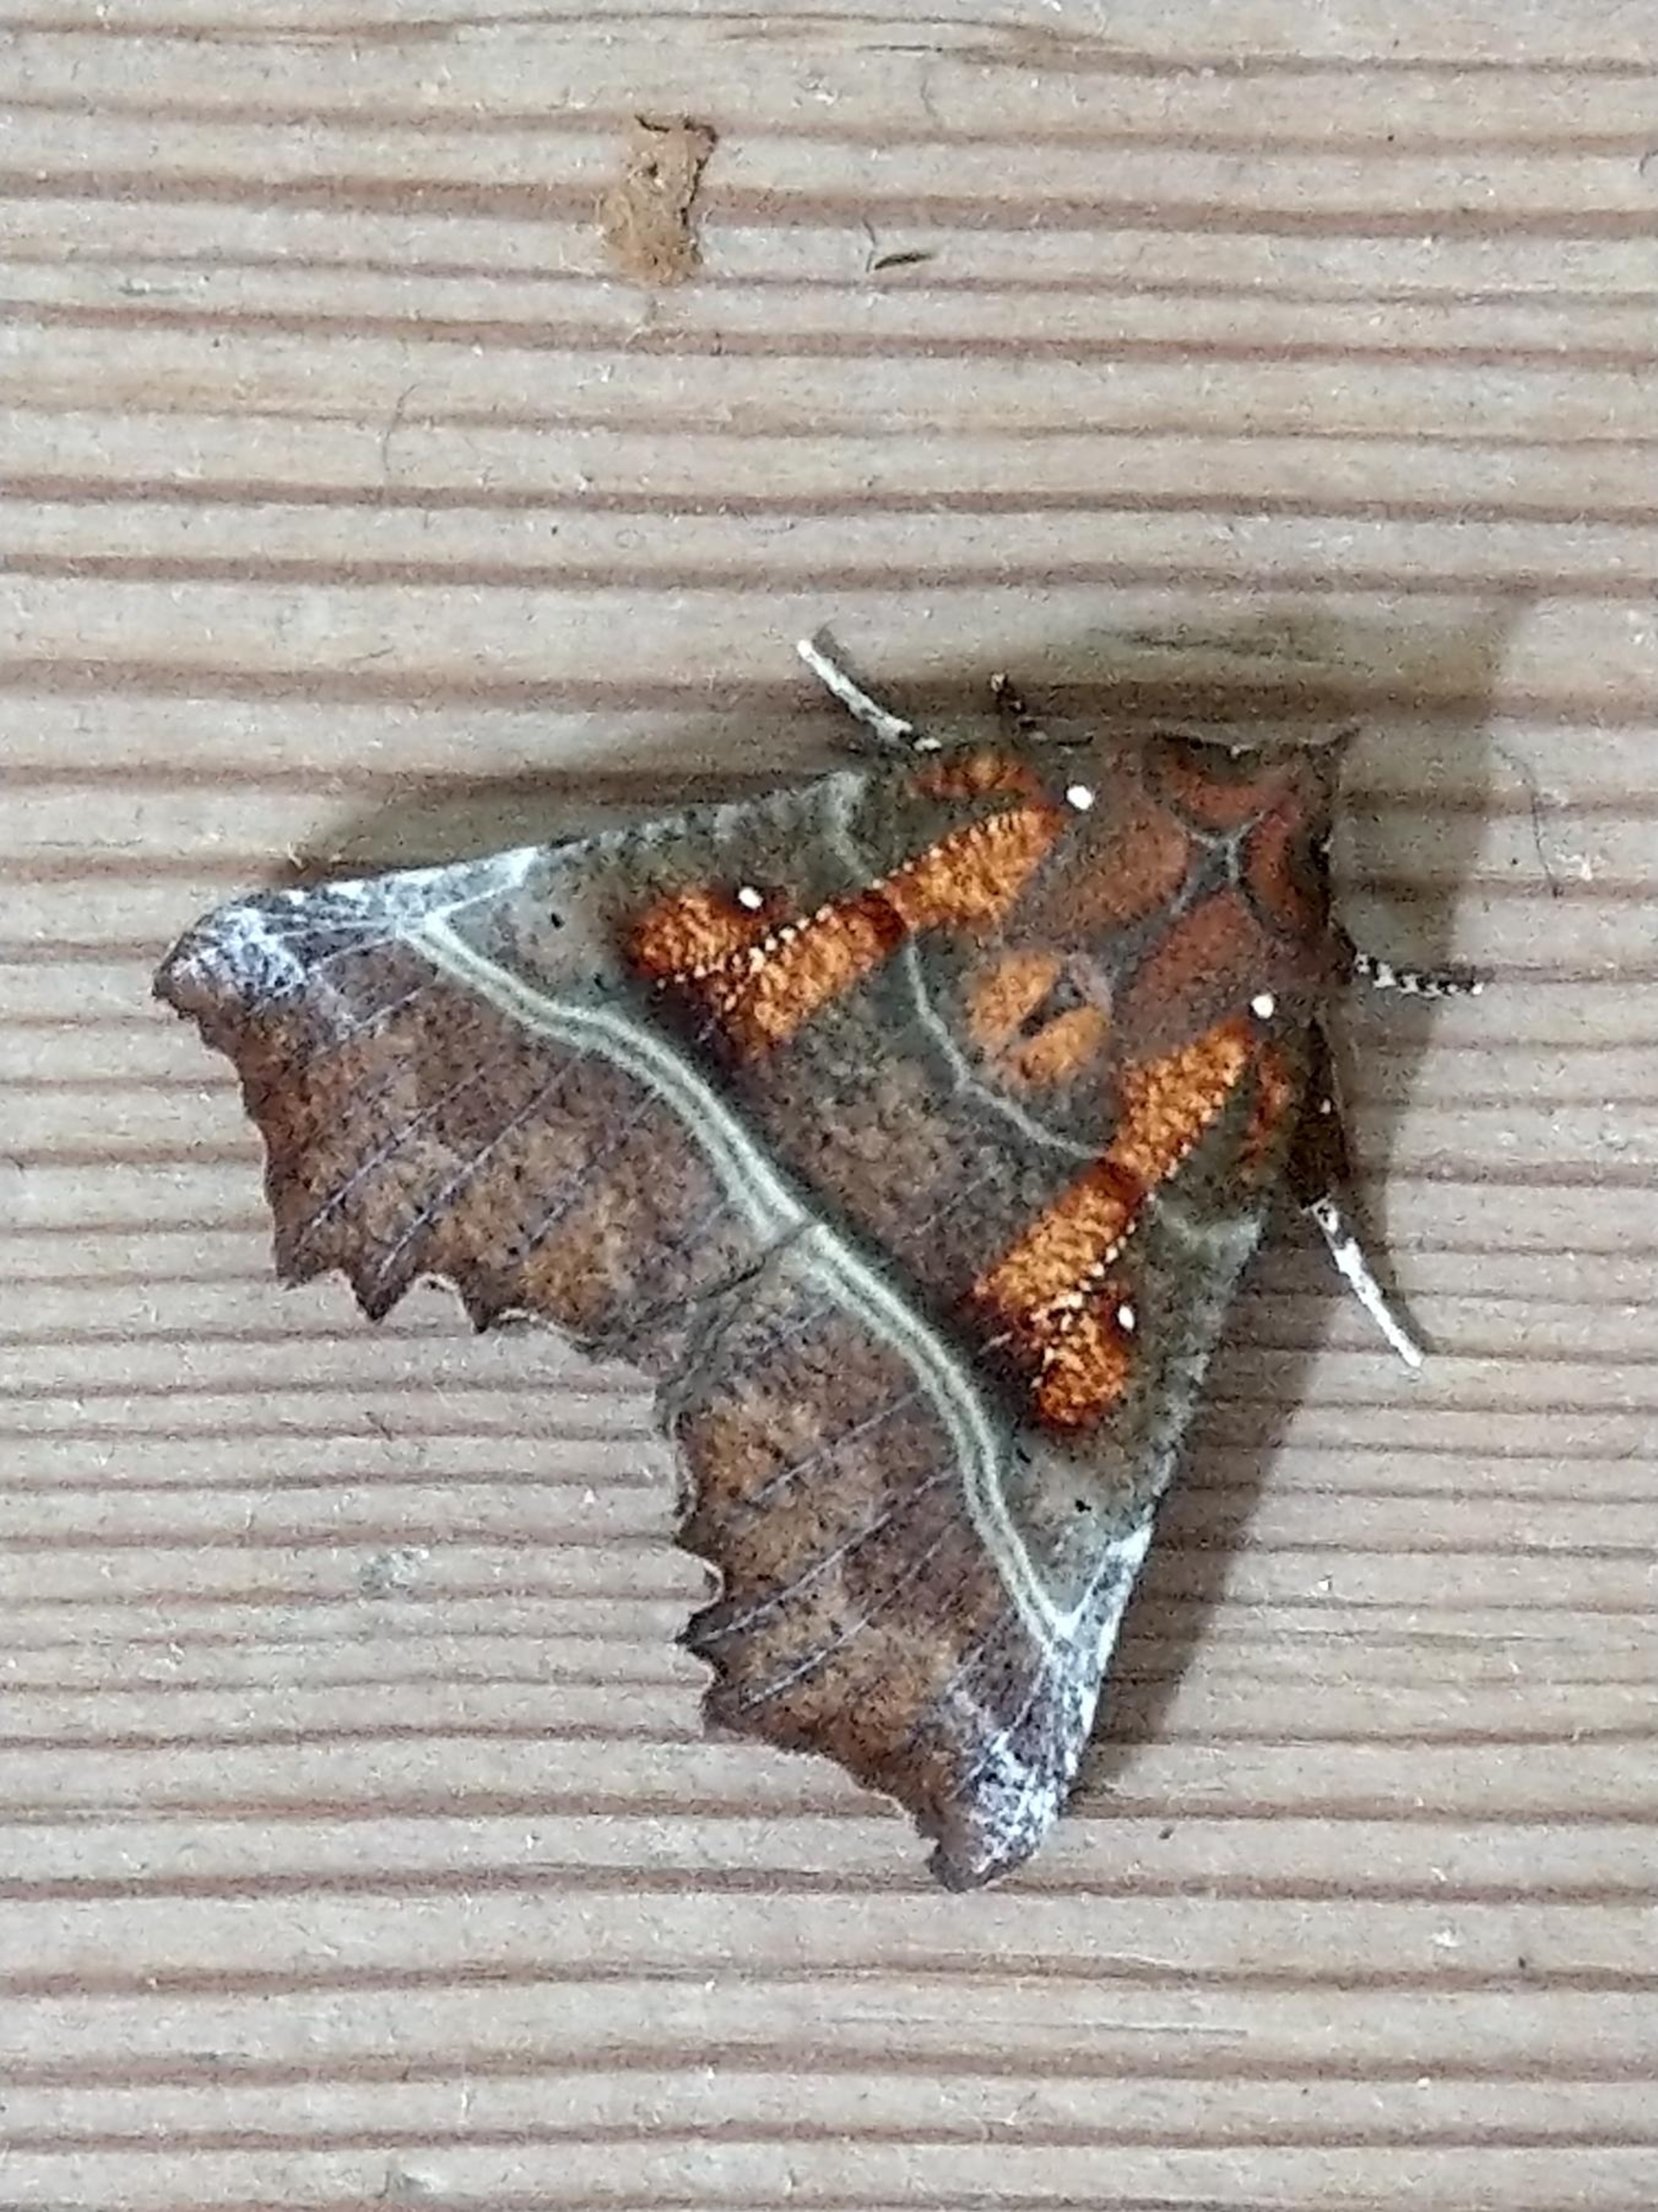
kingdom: Animalia
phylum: Arthropoda
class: Insecta
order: Lepidoptera
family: Erebidae
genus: Scoliopteryx
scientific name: Scoliopteryx libatrix
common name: Husmoderugle
